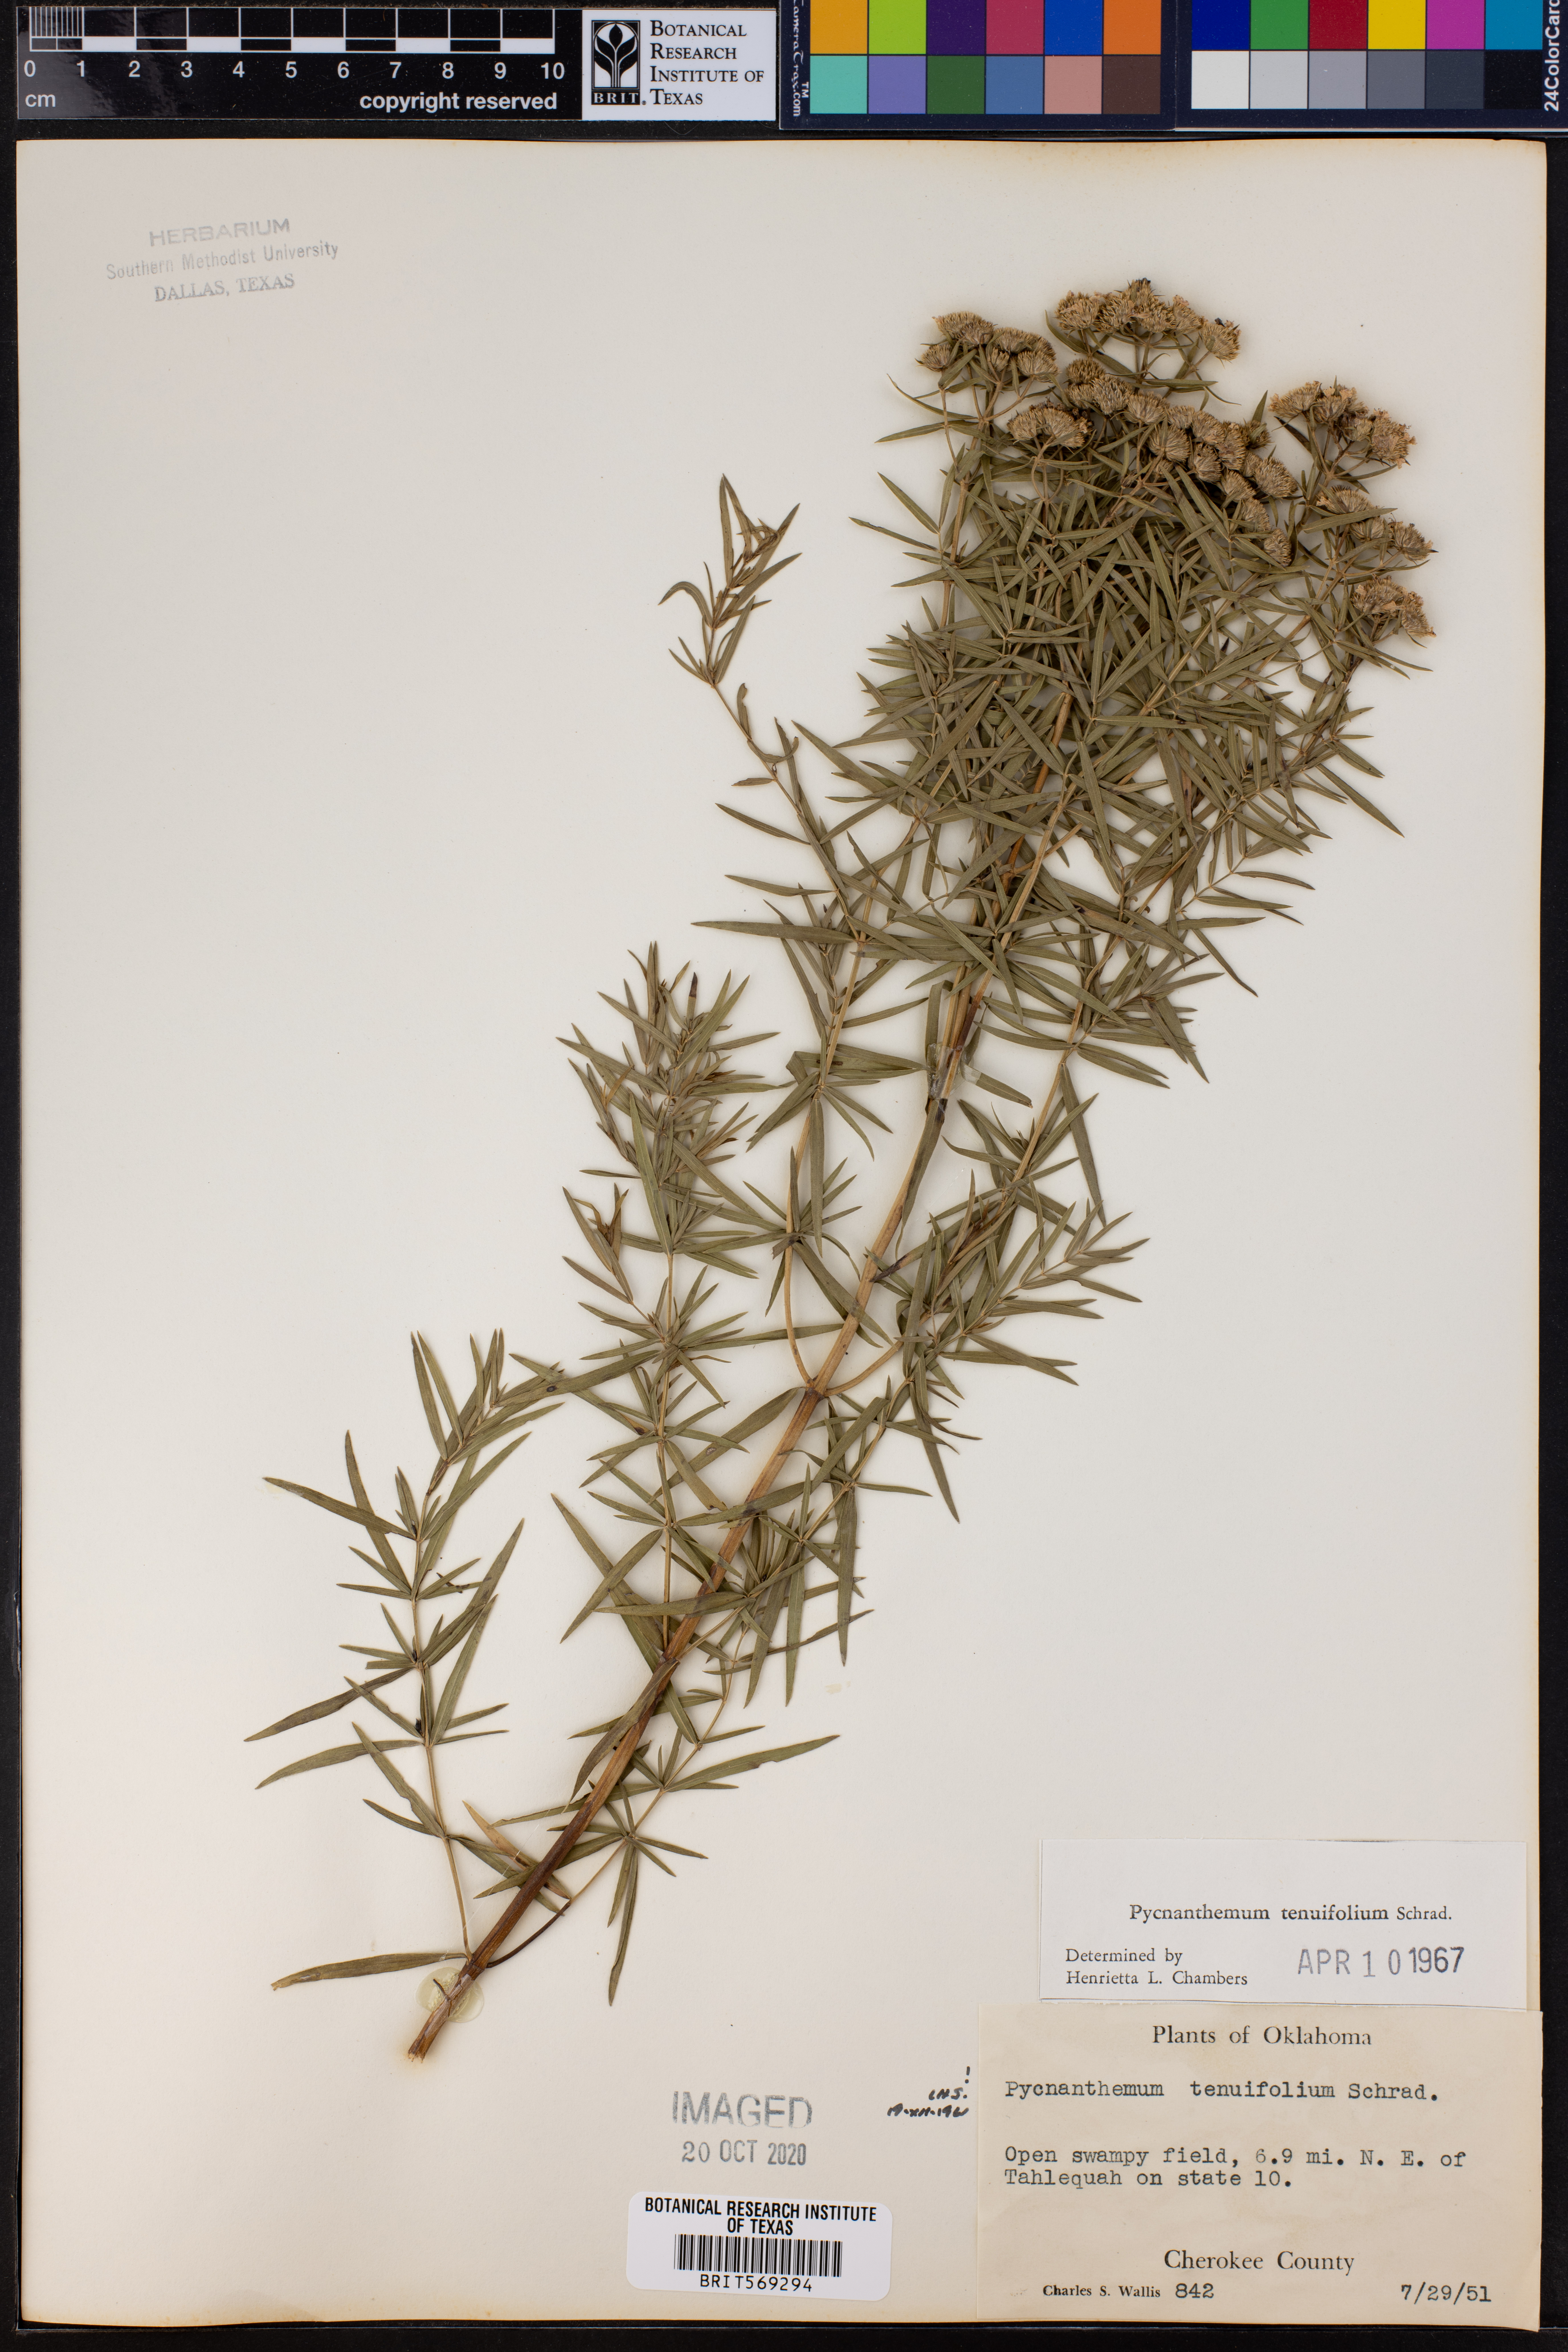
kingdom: Plantae
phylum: Tracheophyta
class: Magnoliopsida
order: Lamiales
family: Lamiaceae
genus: Pycnanthemum
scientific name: Pycnanthemum tenuifolium
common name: Narrow-leaf mountain-mint
